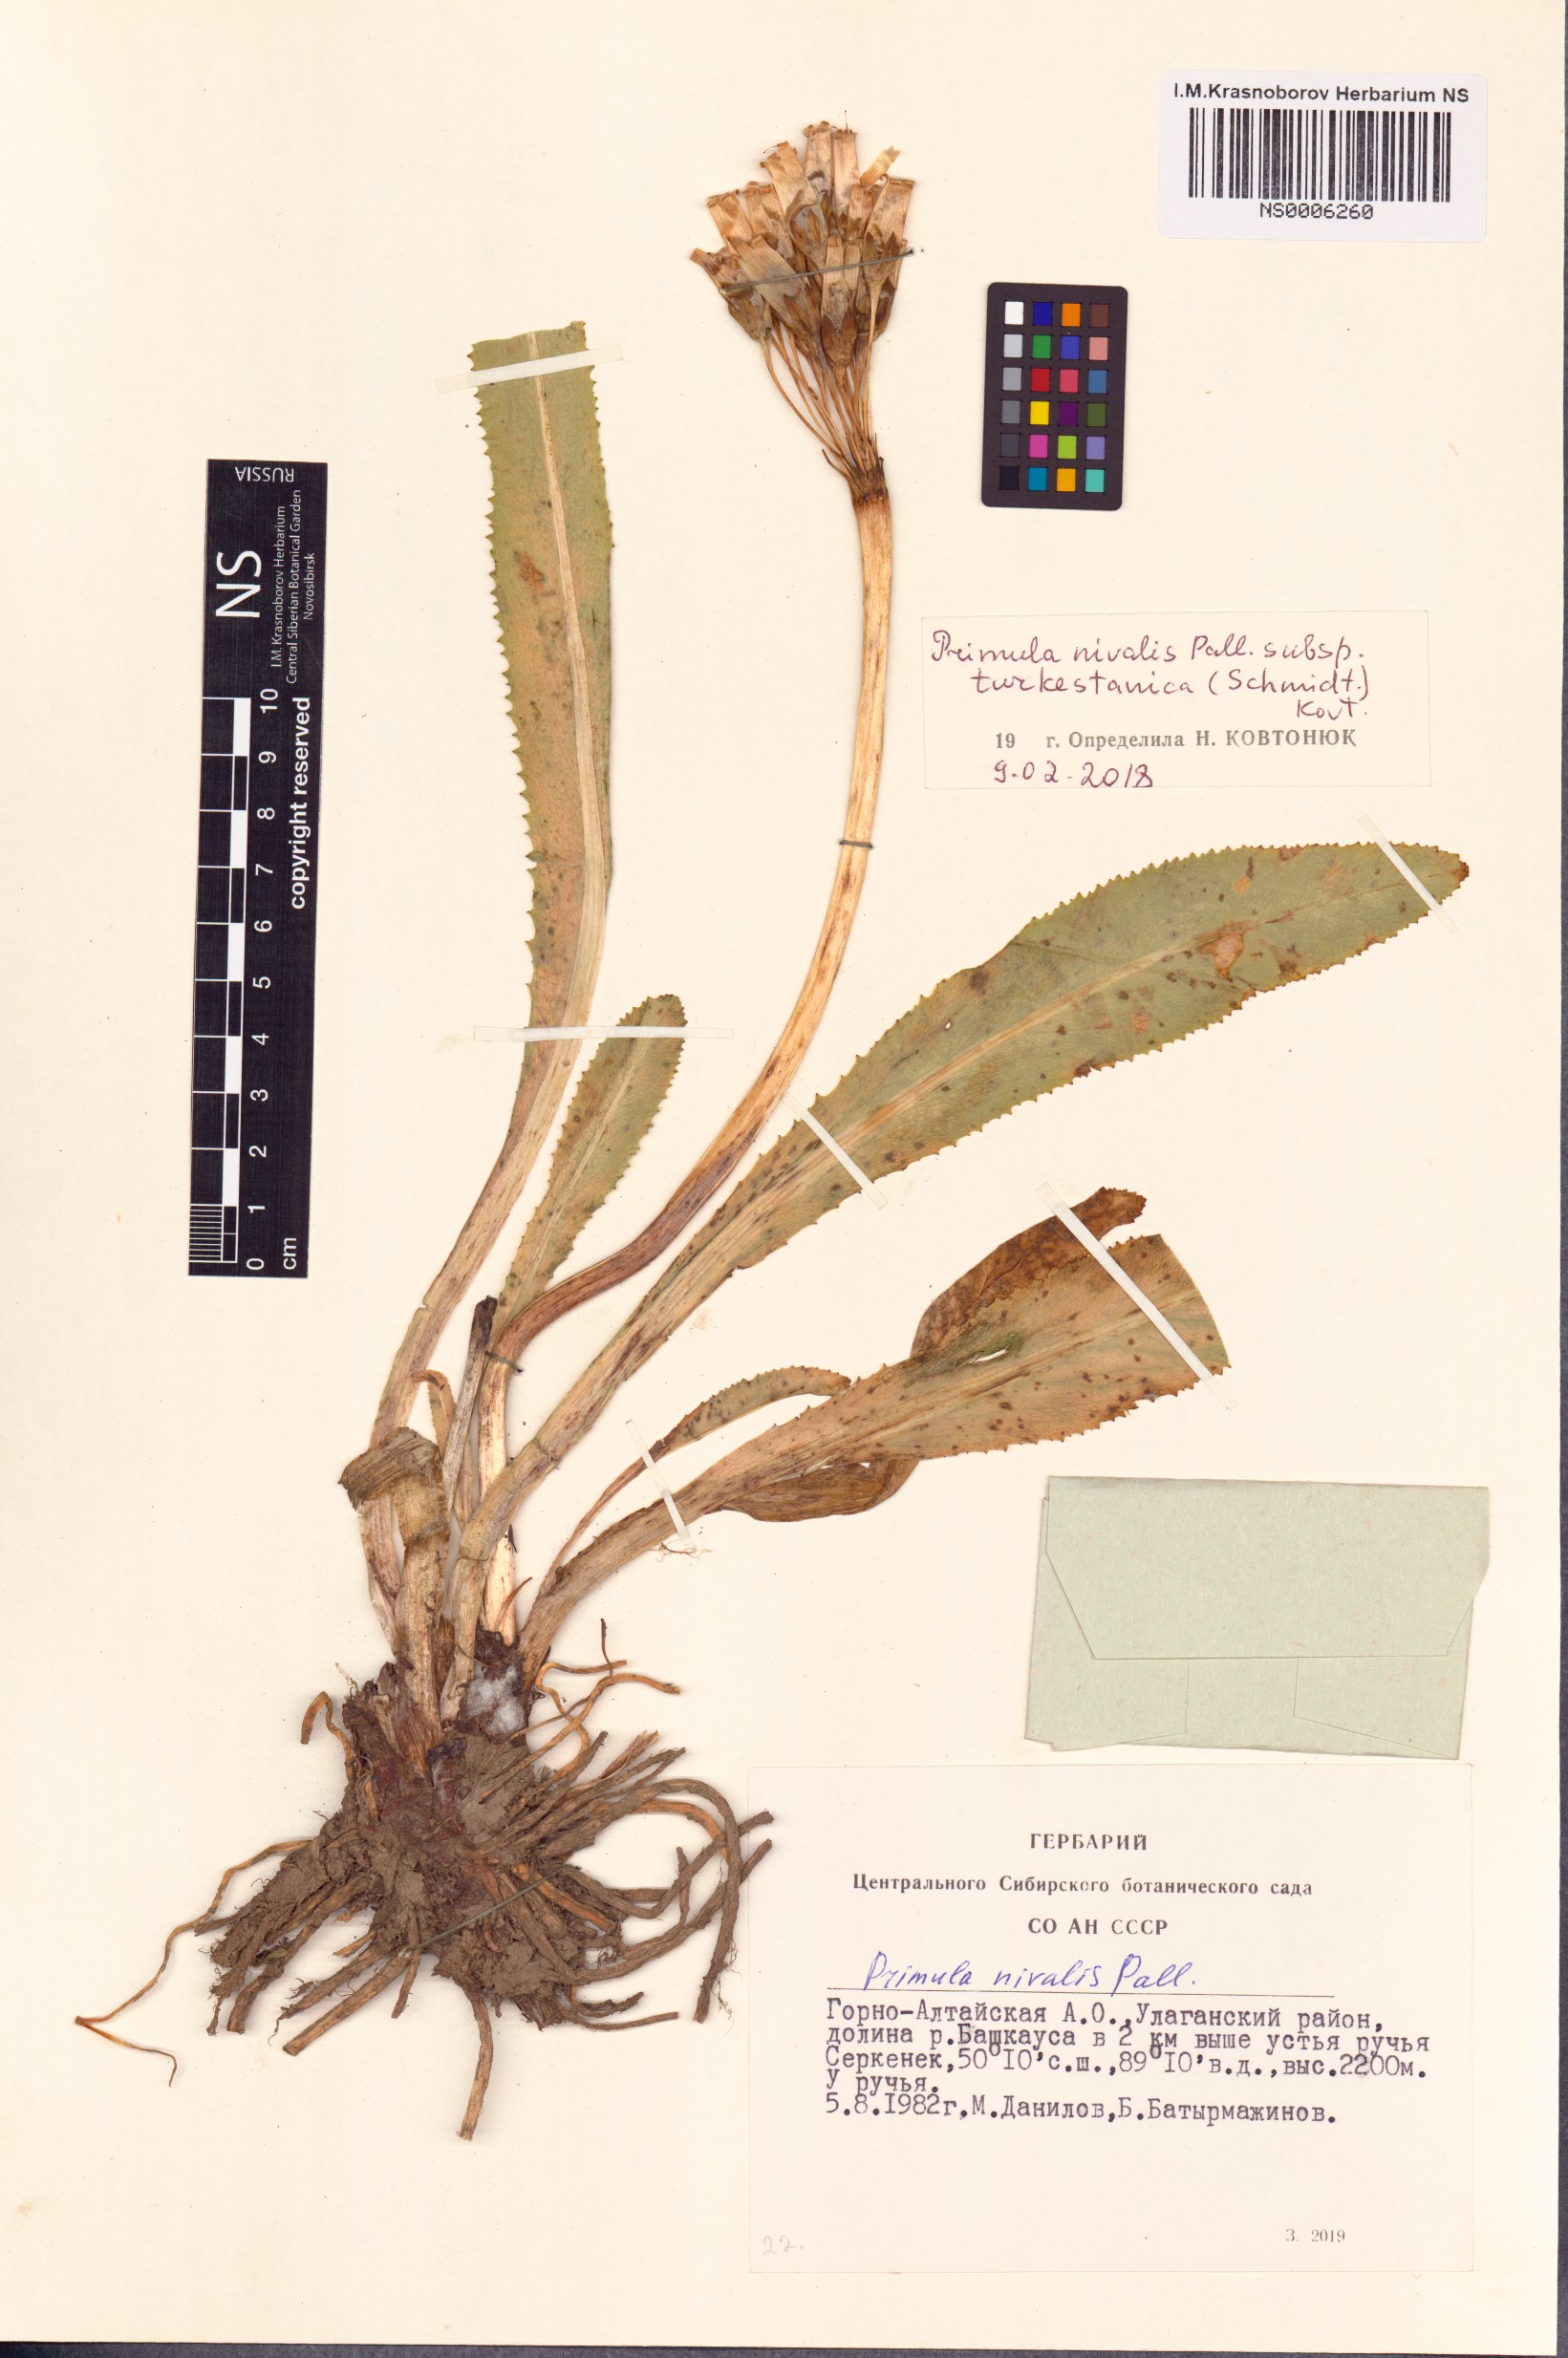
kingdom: Plantae
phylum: Tracheophyta
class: Magnoliopsida
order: Ericales
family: Primulaceae
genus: Primula
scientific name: Primula nivalis
